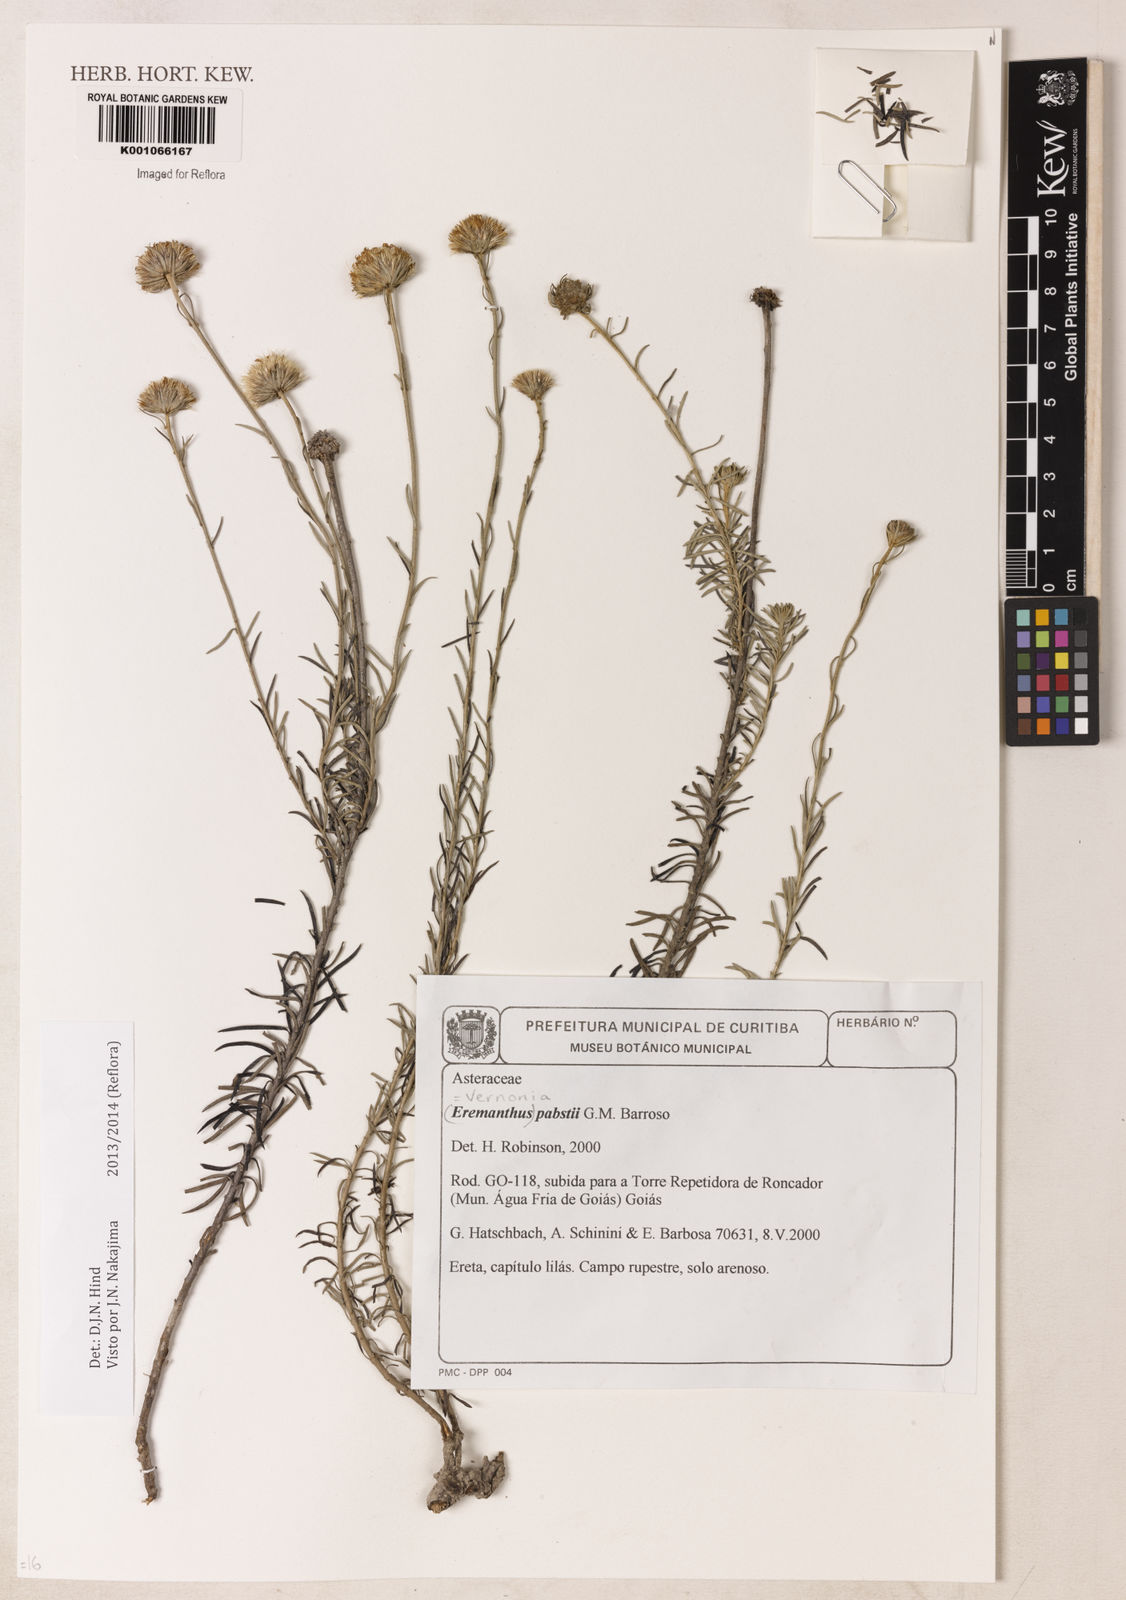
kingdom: Plantae
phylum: Tracheophyta
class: Magnoliopsida
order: Asterales
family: Asteraceae
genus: Piptolepis
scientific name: Piptolepis pabstii
